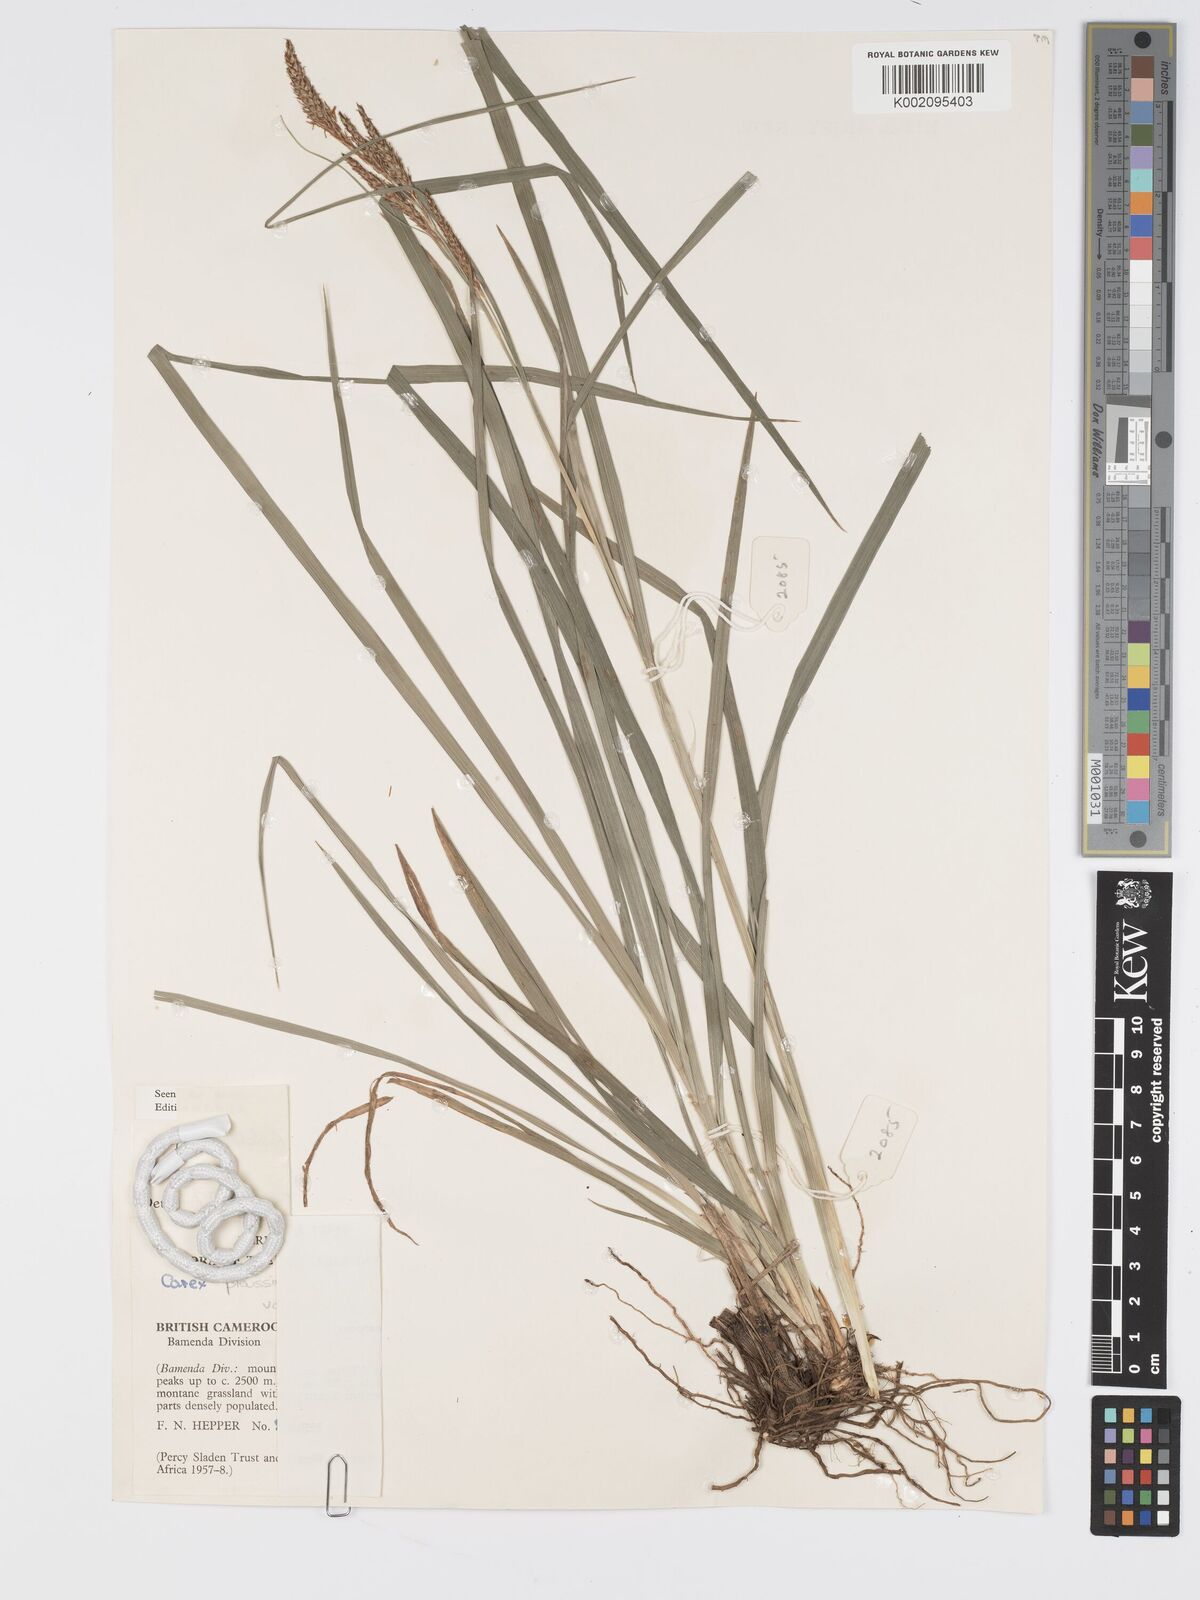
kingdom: Plantae
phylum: Tracheophyta
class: Liliopsida
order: Poales
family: Cyperaceae
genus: Carex
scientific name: Carex petitiana
